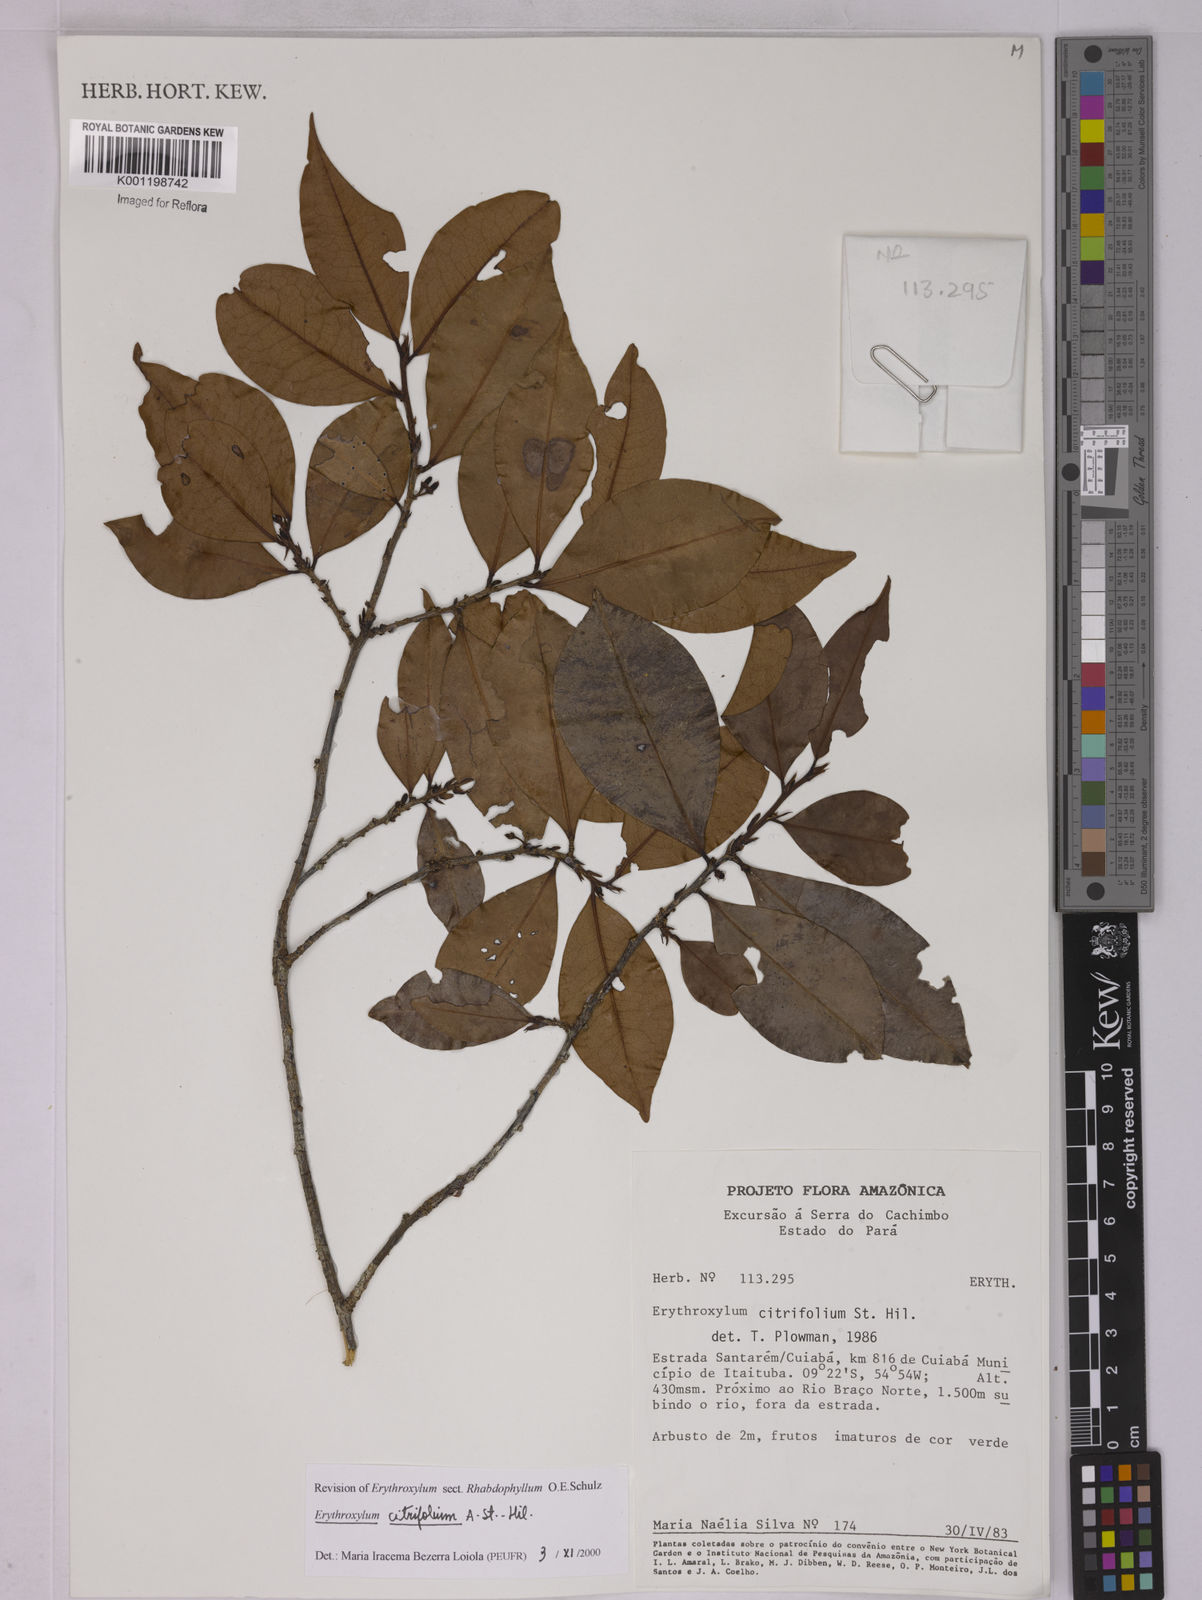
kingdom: Plantae
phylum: Tracheophyta
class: Magnoliopsida
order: Malpighiales
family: Erythroxylaceae
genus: Erythroxylum
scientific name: Erythroxylum citrifolium
